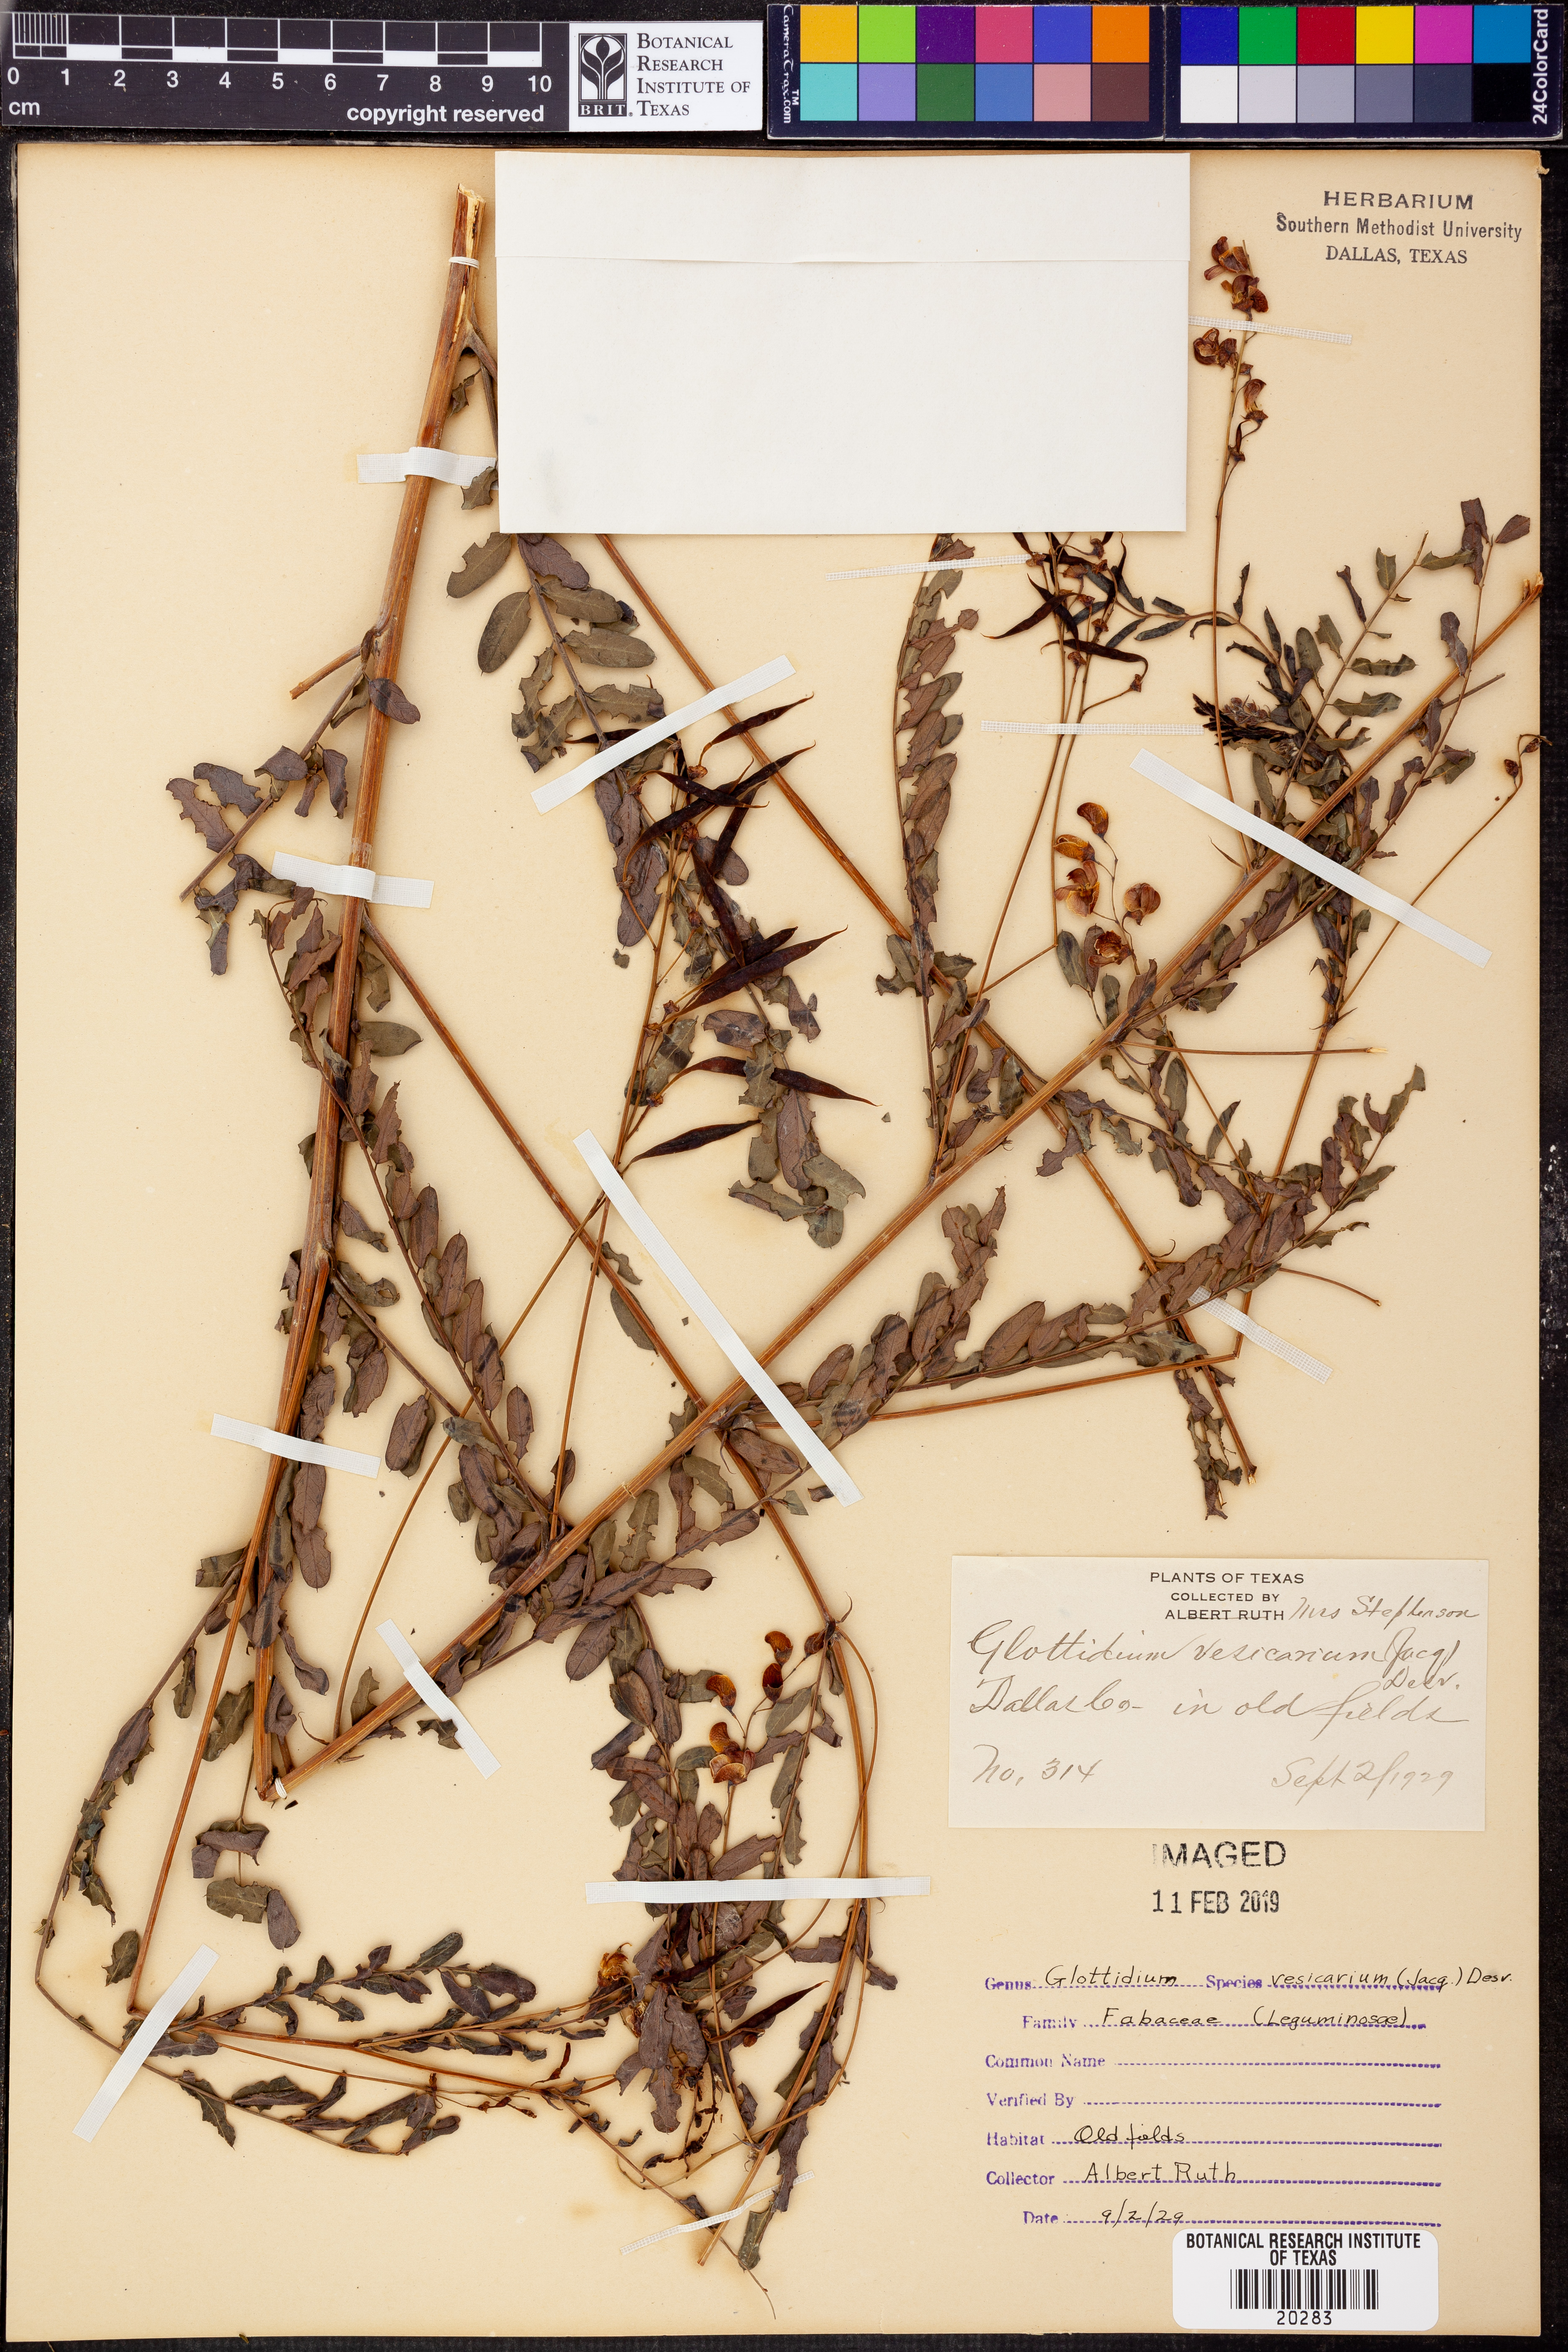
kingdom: Plantae
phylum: Tracheophyta
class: Magnoliopsida
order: Fabales
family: Fabaceae
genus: Sesbania
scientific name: Sesbania vesicaria
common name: Bagpod
